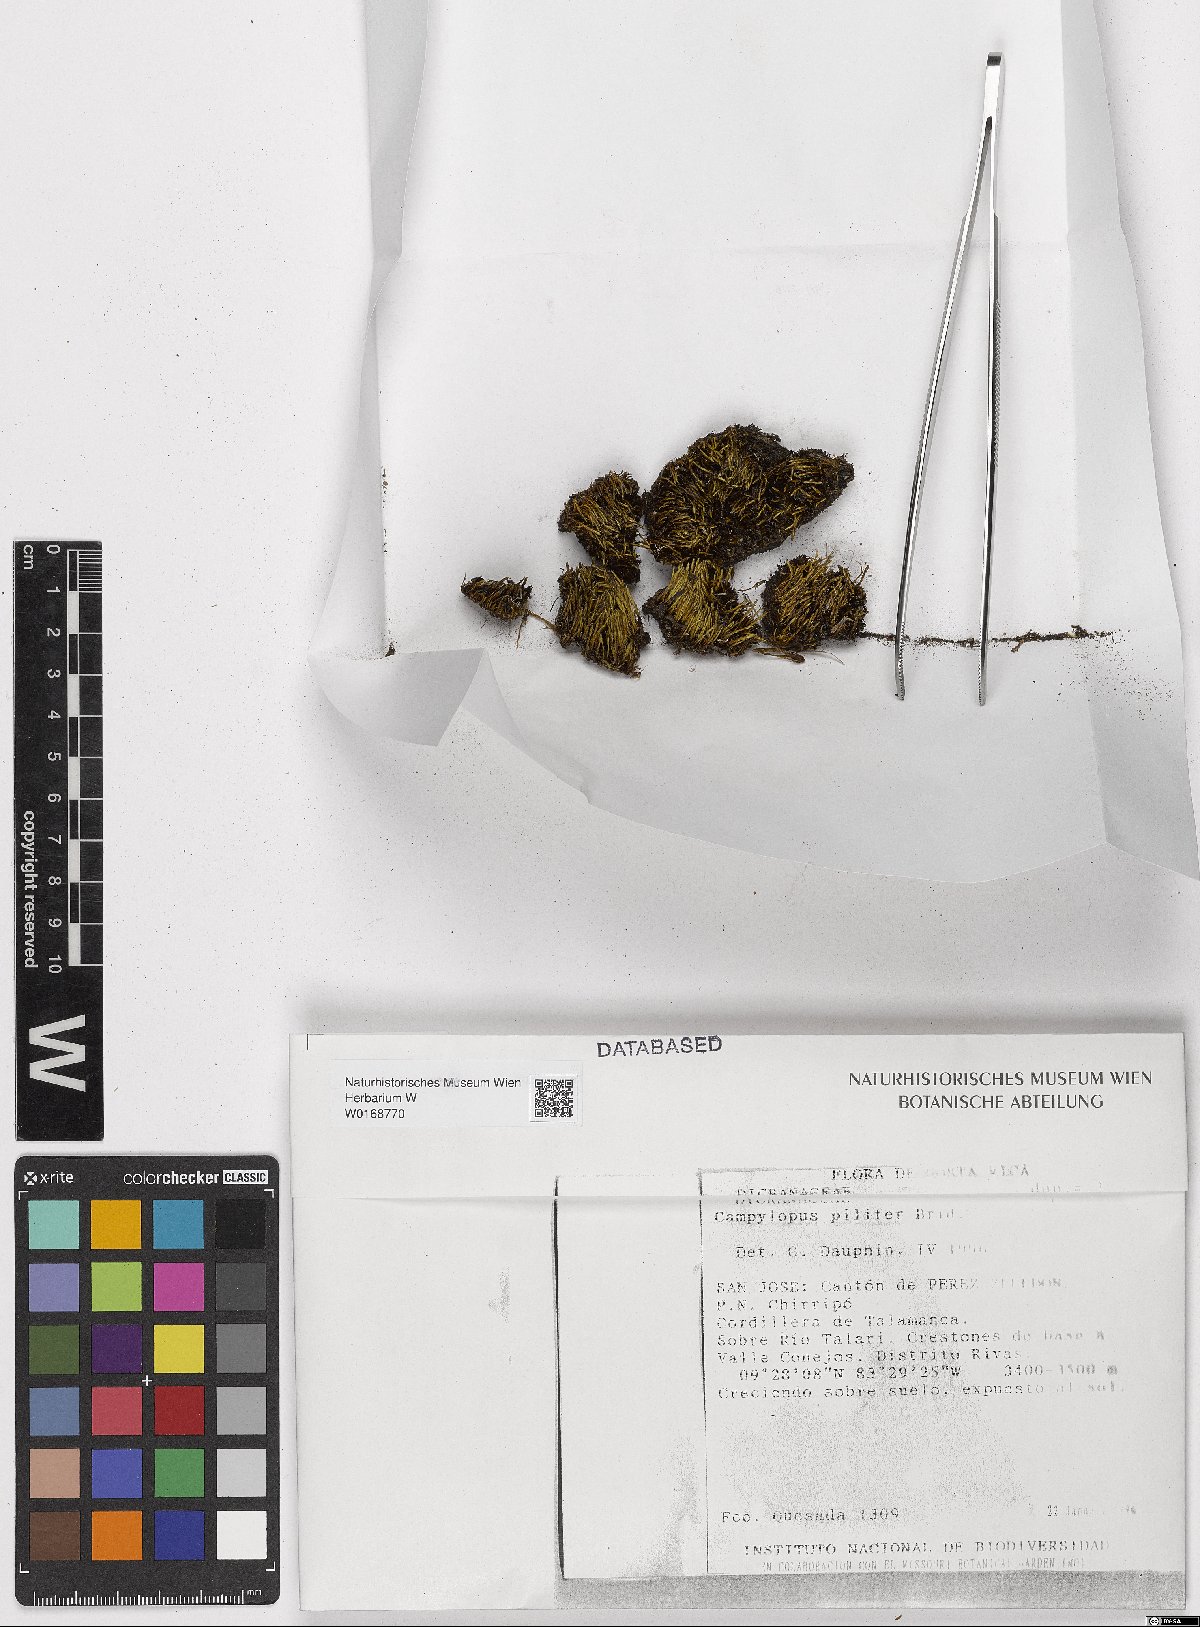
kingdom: Plantae
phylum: Bryophyta
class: Bryopsida
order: Dicranales
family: Leucobryaceae
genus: Campylopus
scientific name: Campylopus pilifer
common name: Campylopus moss
